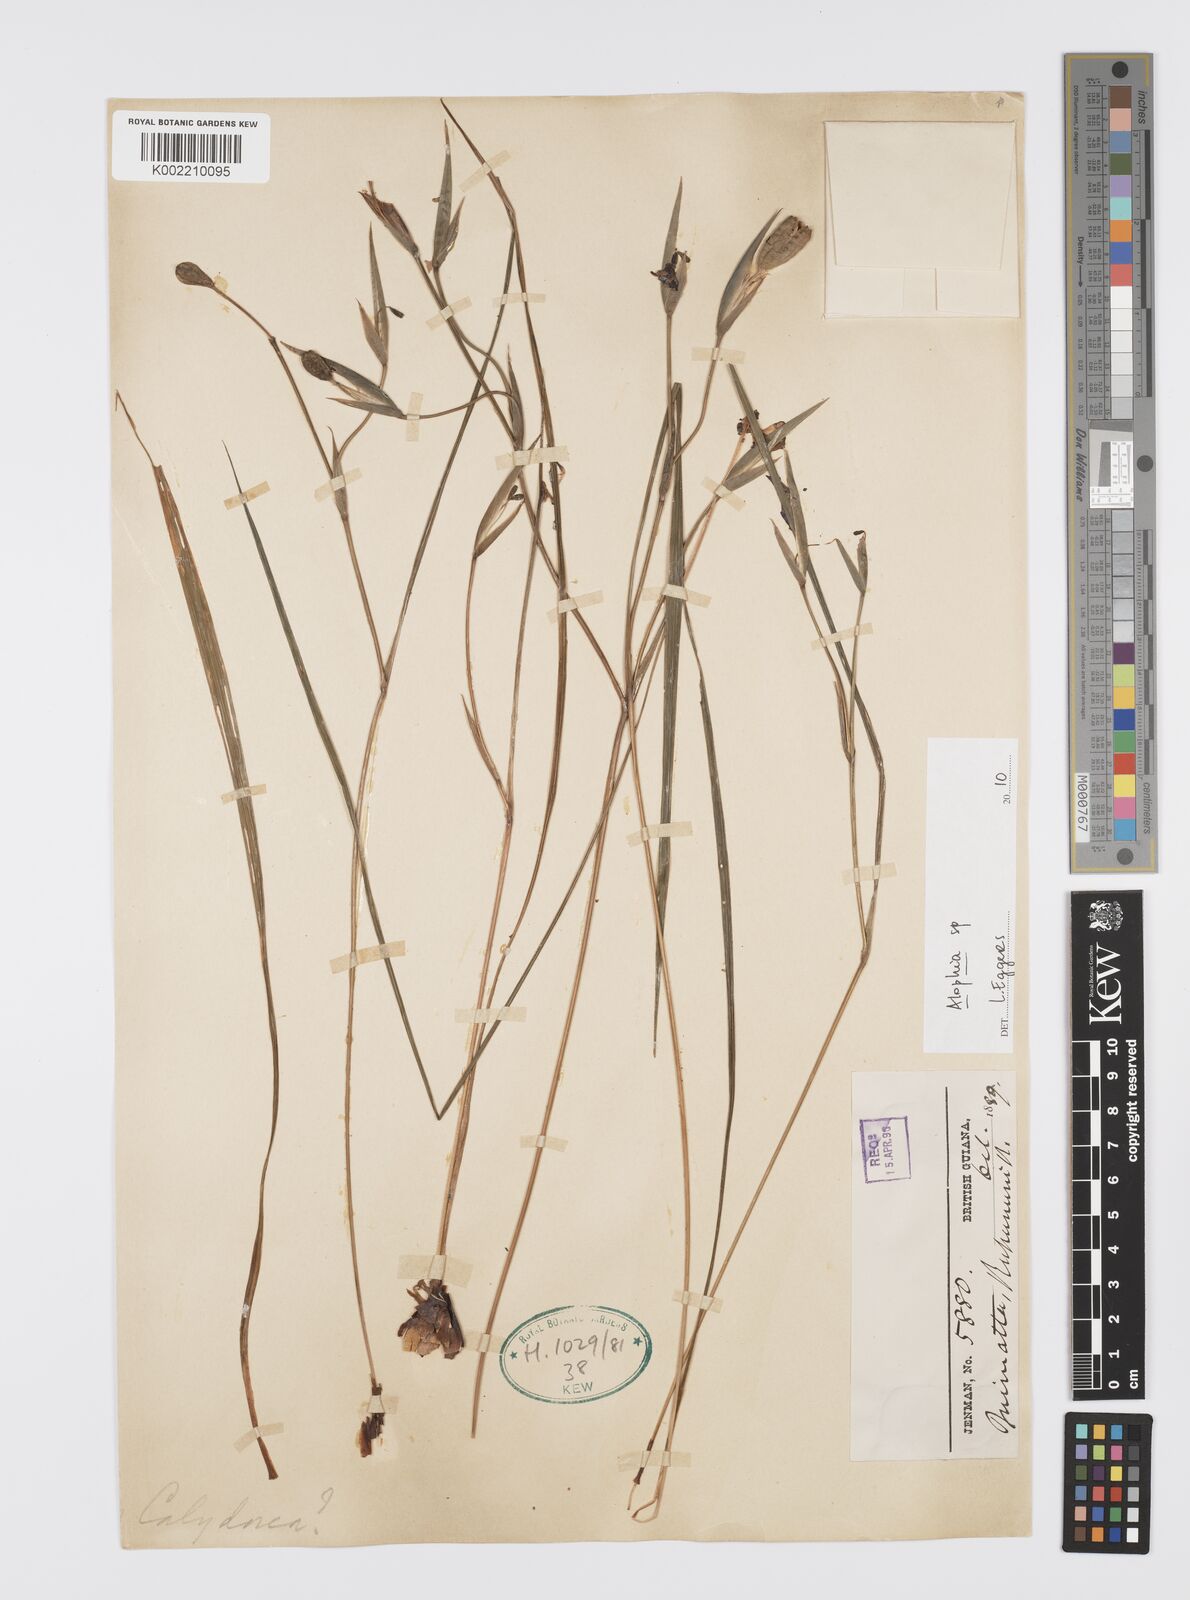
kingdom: Plantae
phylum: Tracheophyta
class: Liliopsida
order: Asparagales
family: Iridaceae
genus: Alophia
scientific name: Alophia
